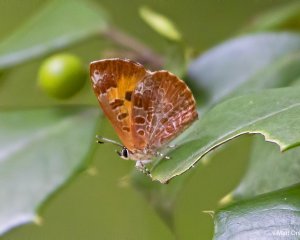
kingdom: Animalia
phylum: Arthropoda
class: Insecta
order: Lepidoptera
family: Lycaenidae
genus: Feniseca
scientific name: Feniseca tarquinius
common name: Harvester
